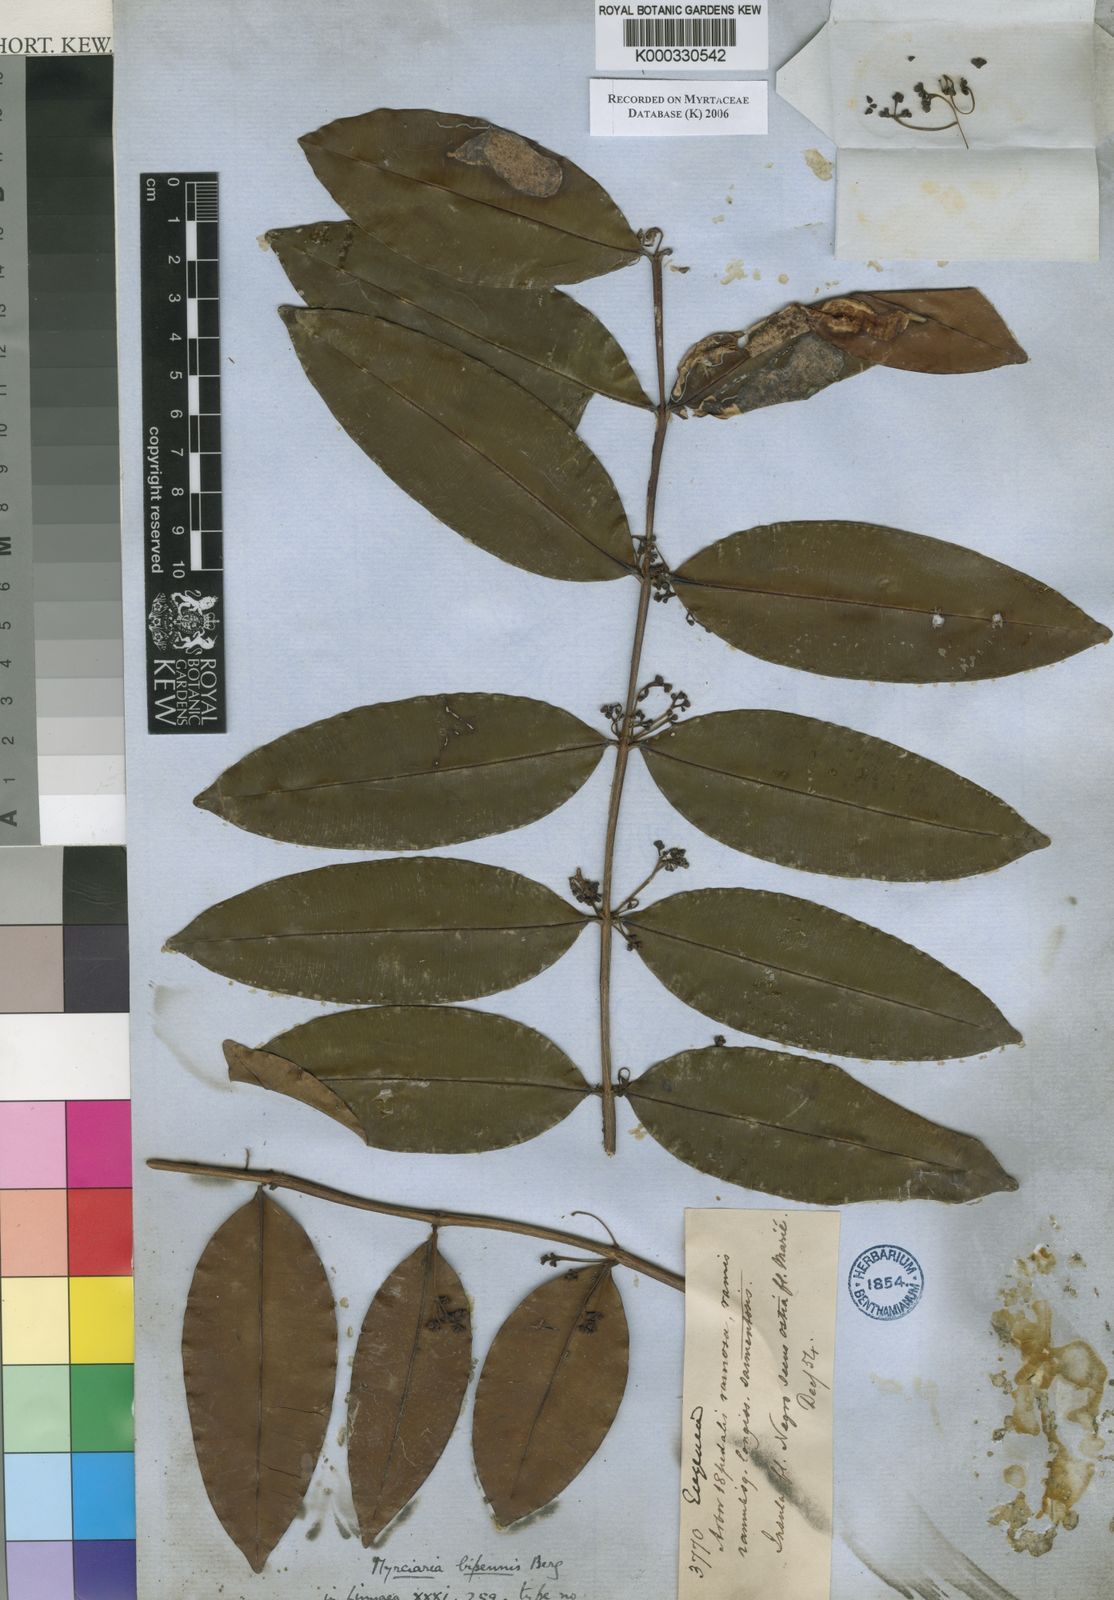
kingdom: Plantae
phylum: Tracheophyta
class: Magnoliopsida
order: Myrtales
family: Myrtaceae
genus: Myrcia
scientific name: Myrcia bipennis
